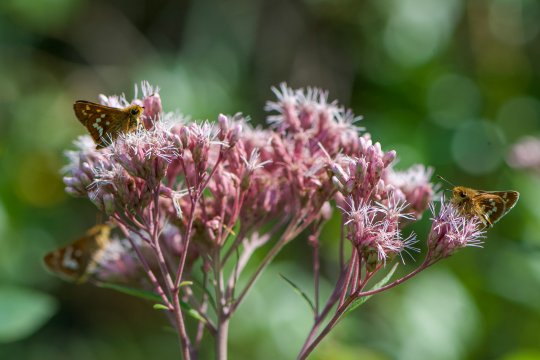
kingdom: Animalia
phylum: Arthropoda
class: Insecta
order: Lepidoptera
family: Hesperiidae
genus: Hesperia
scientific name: Hesperia leonardus
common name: Leonard's Skipper
